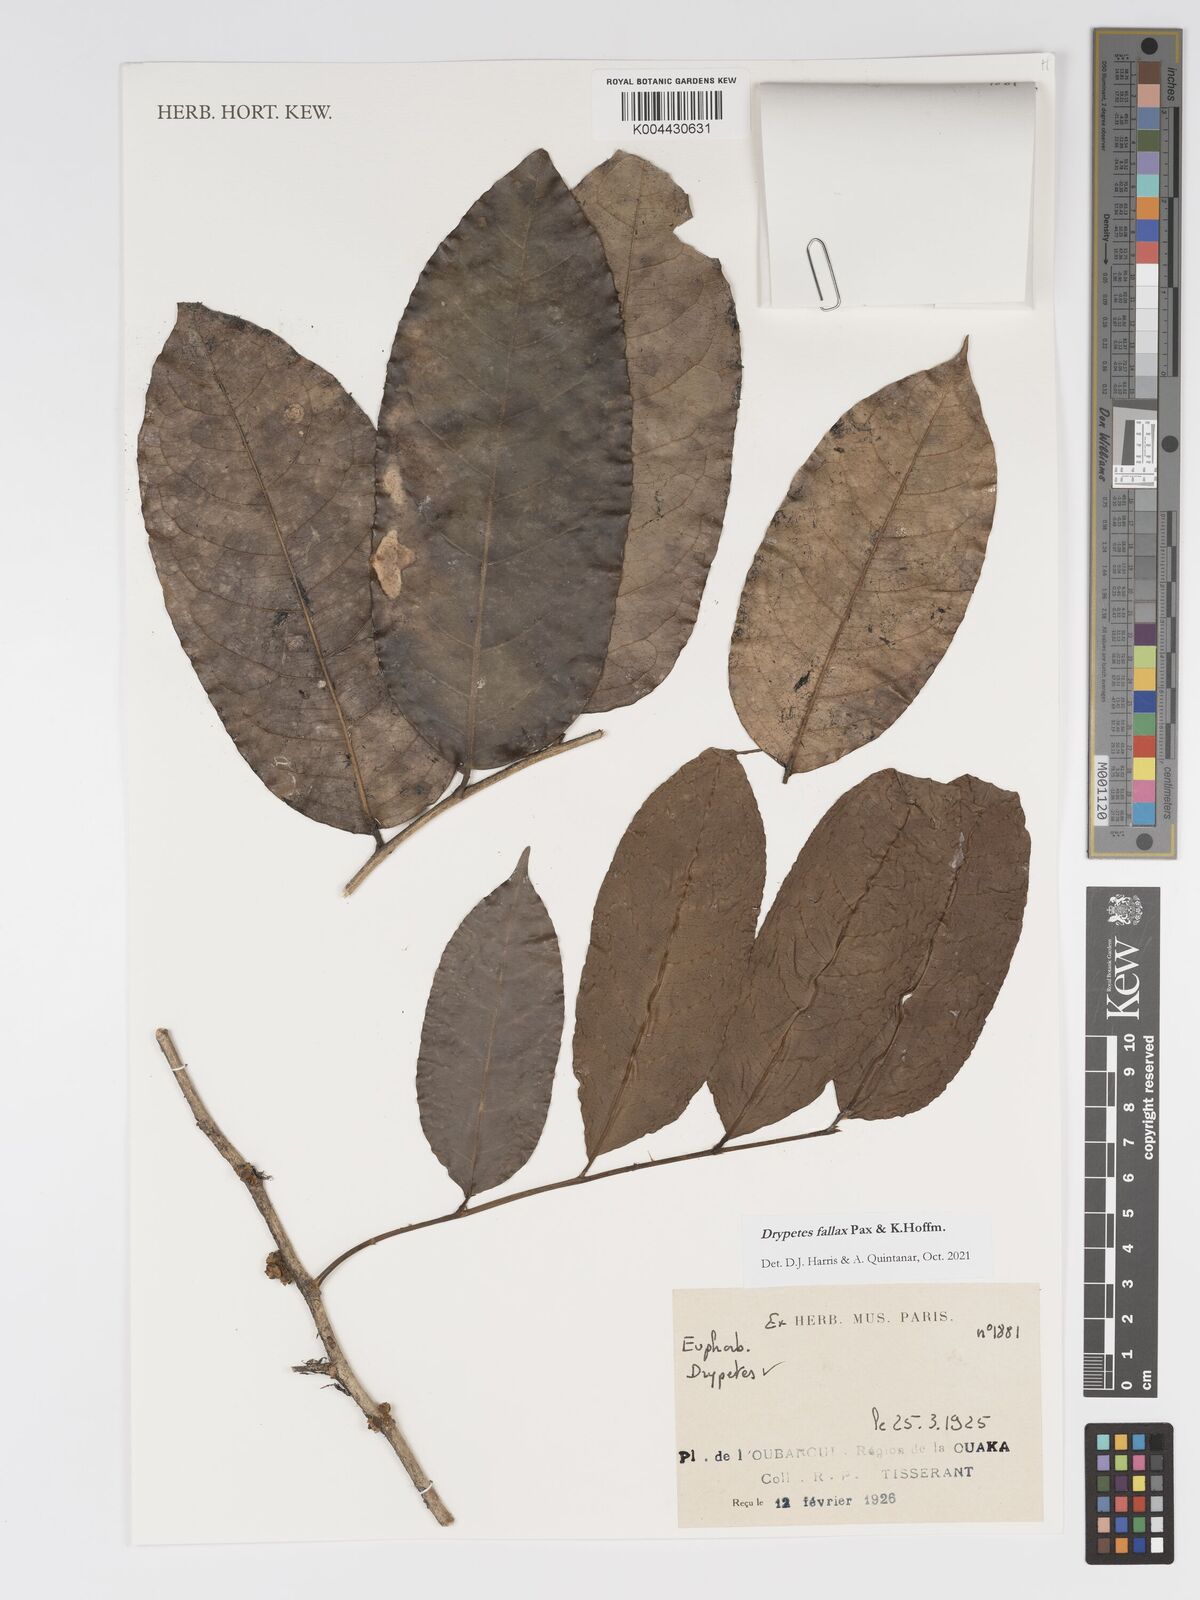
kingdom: Plantae
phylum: Tracheophyta
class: Magnoliopsida
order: Malpighiales
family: Putranjivaceae
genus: Drypetes
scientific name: Drypetes fallax
